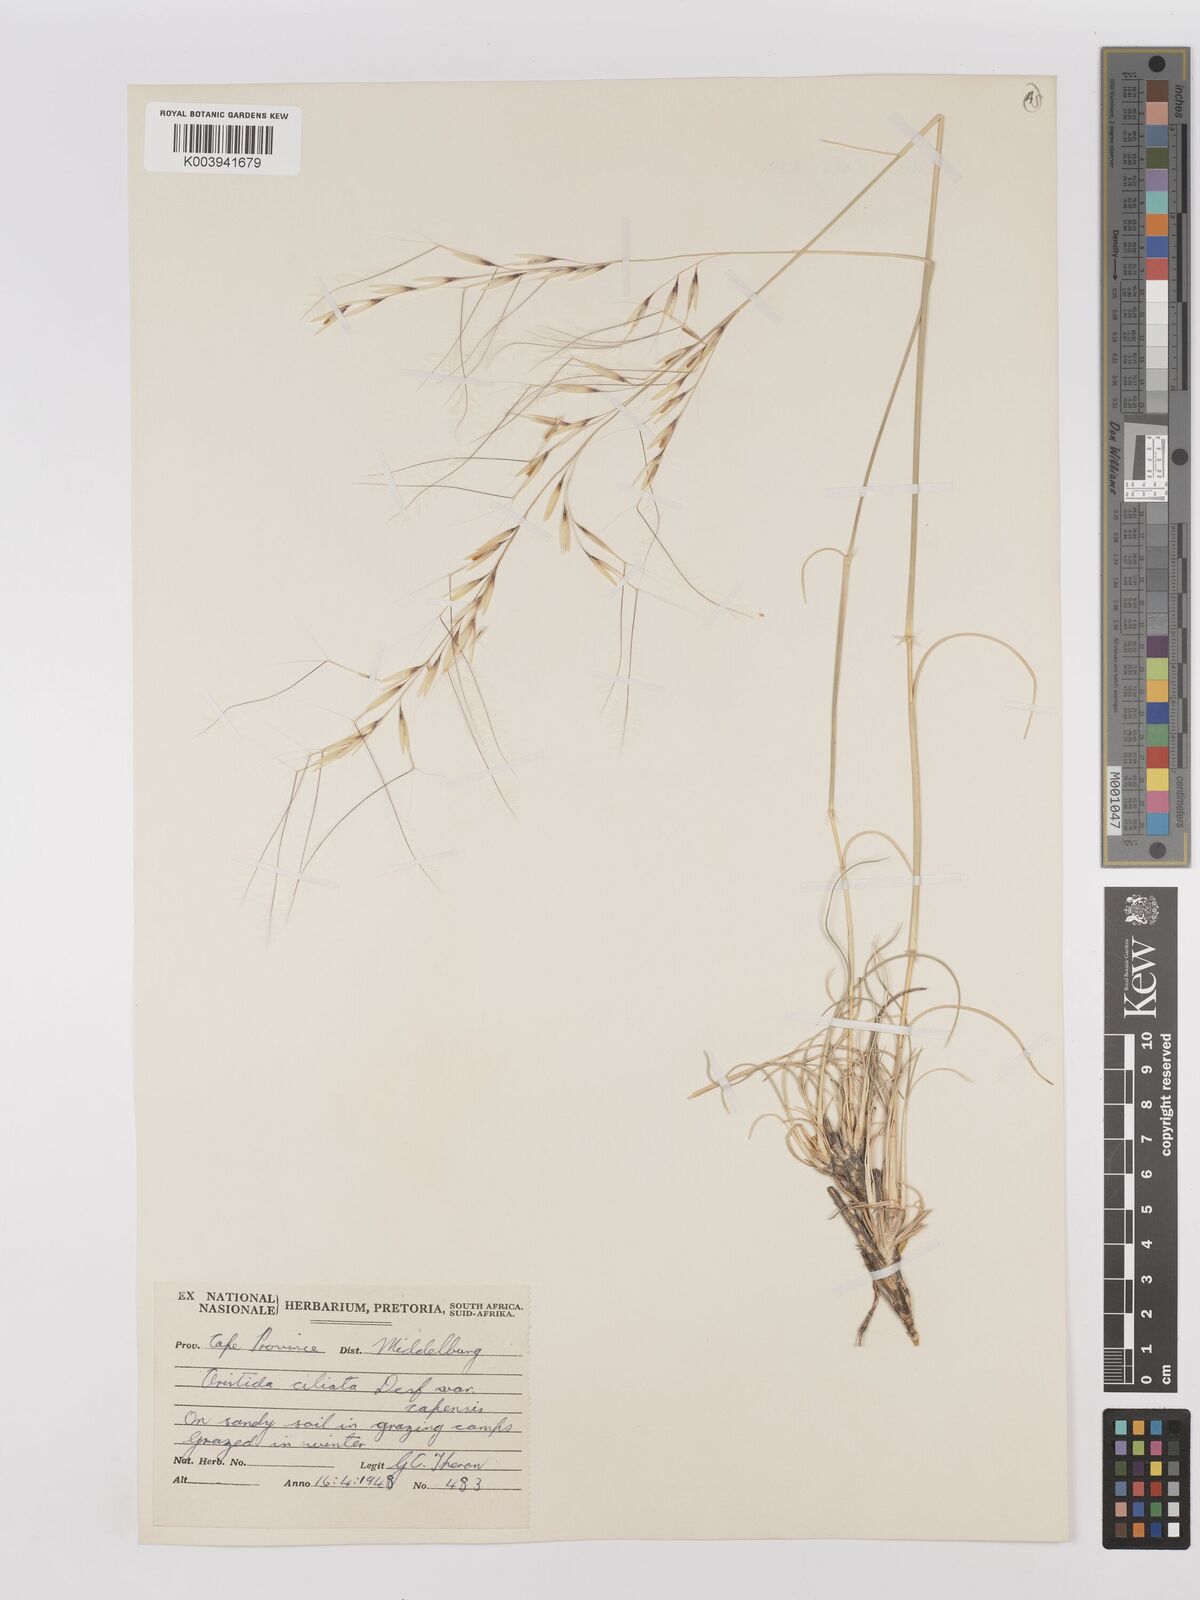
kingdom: Plantae
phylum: Tracheophyta
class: Liliopsida
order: Poales
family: Poaceae
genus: Stipagrostis
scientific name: Stipagrostis ciliata
